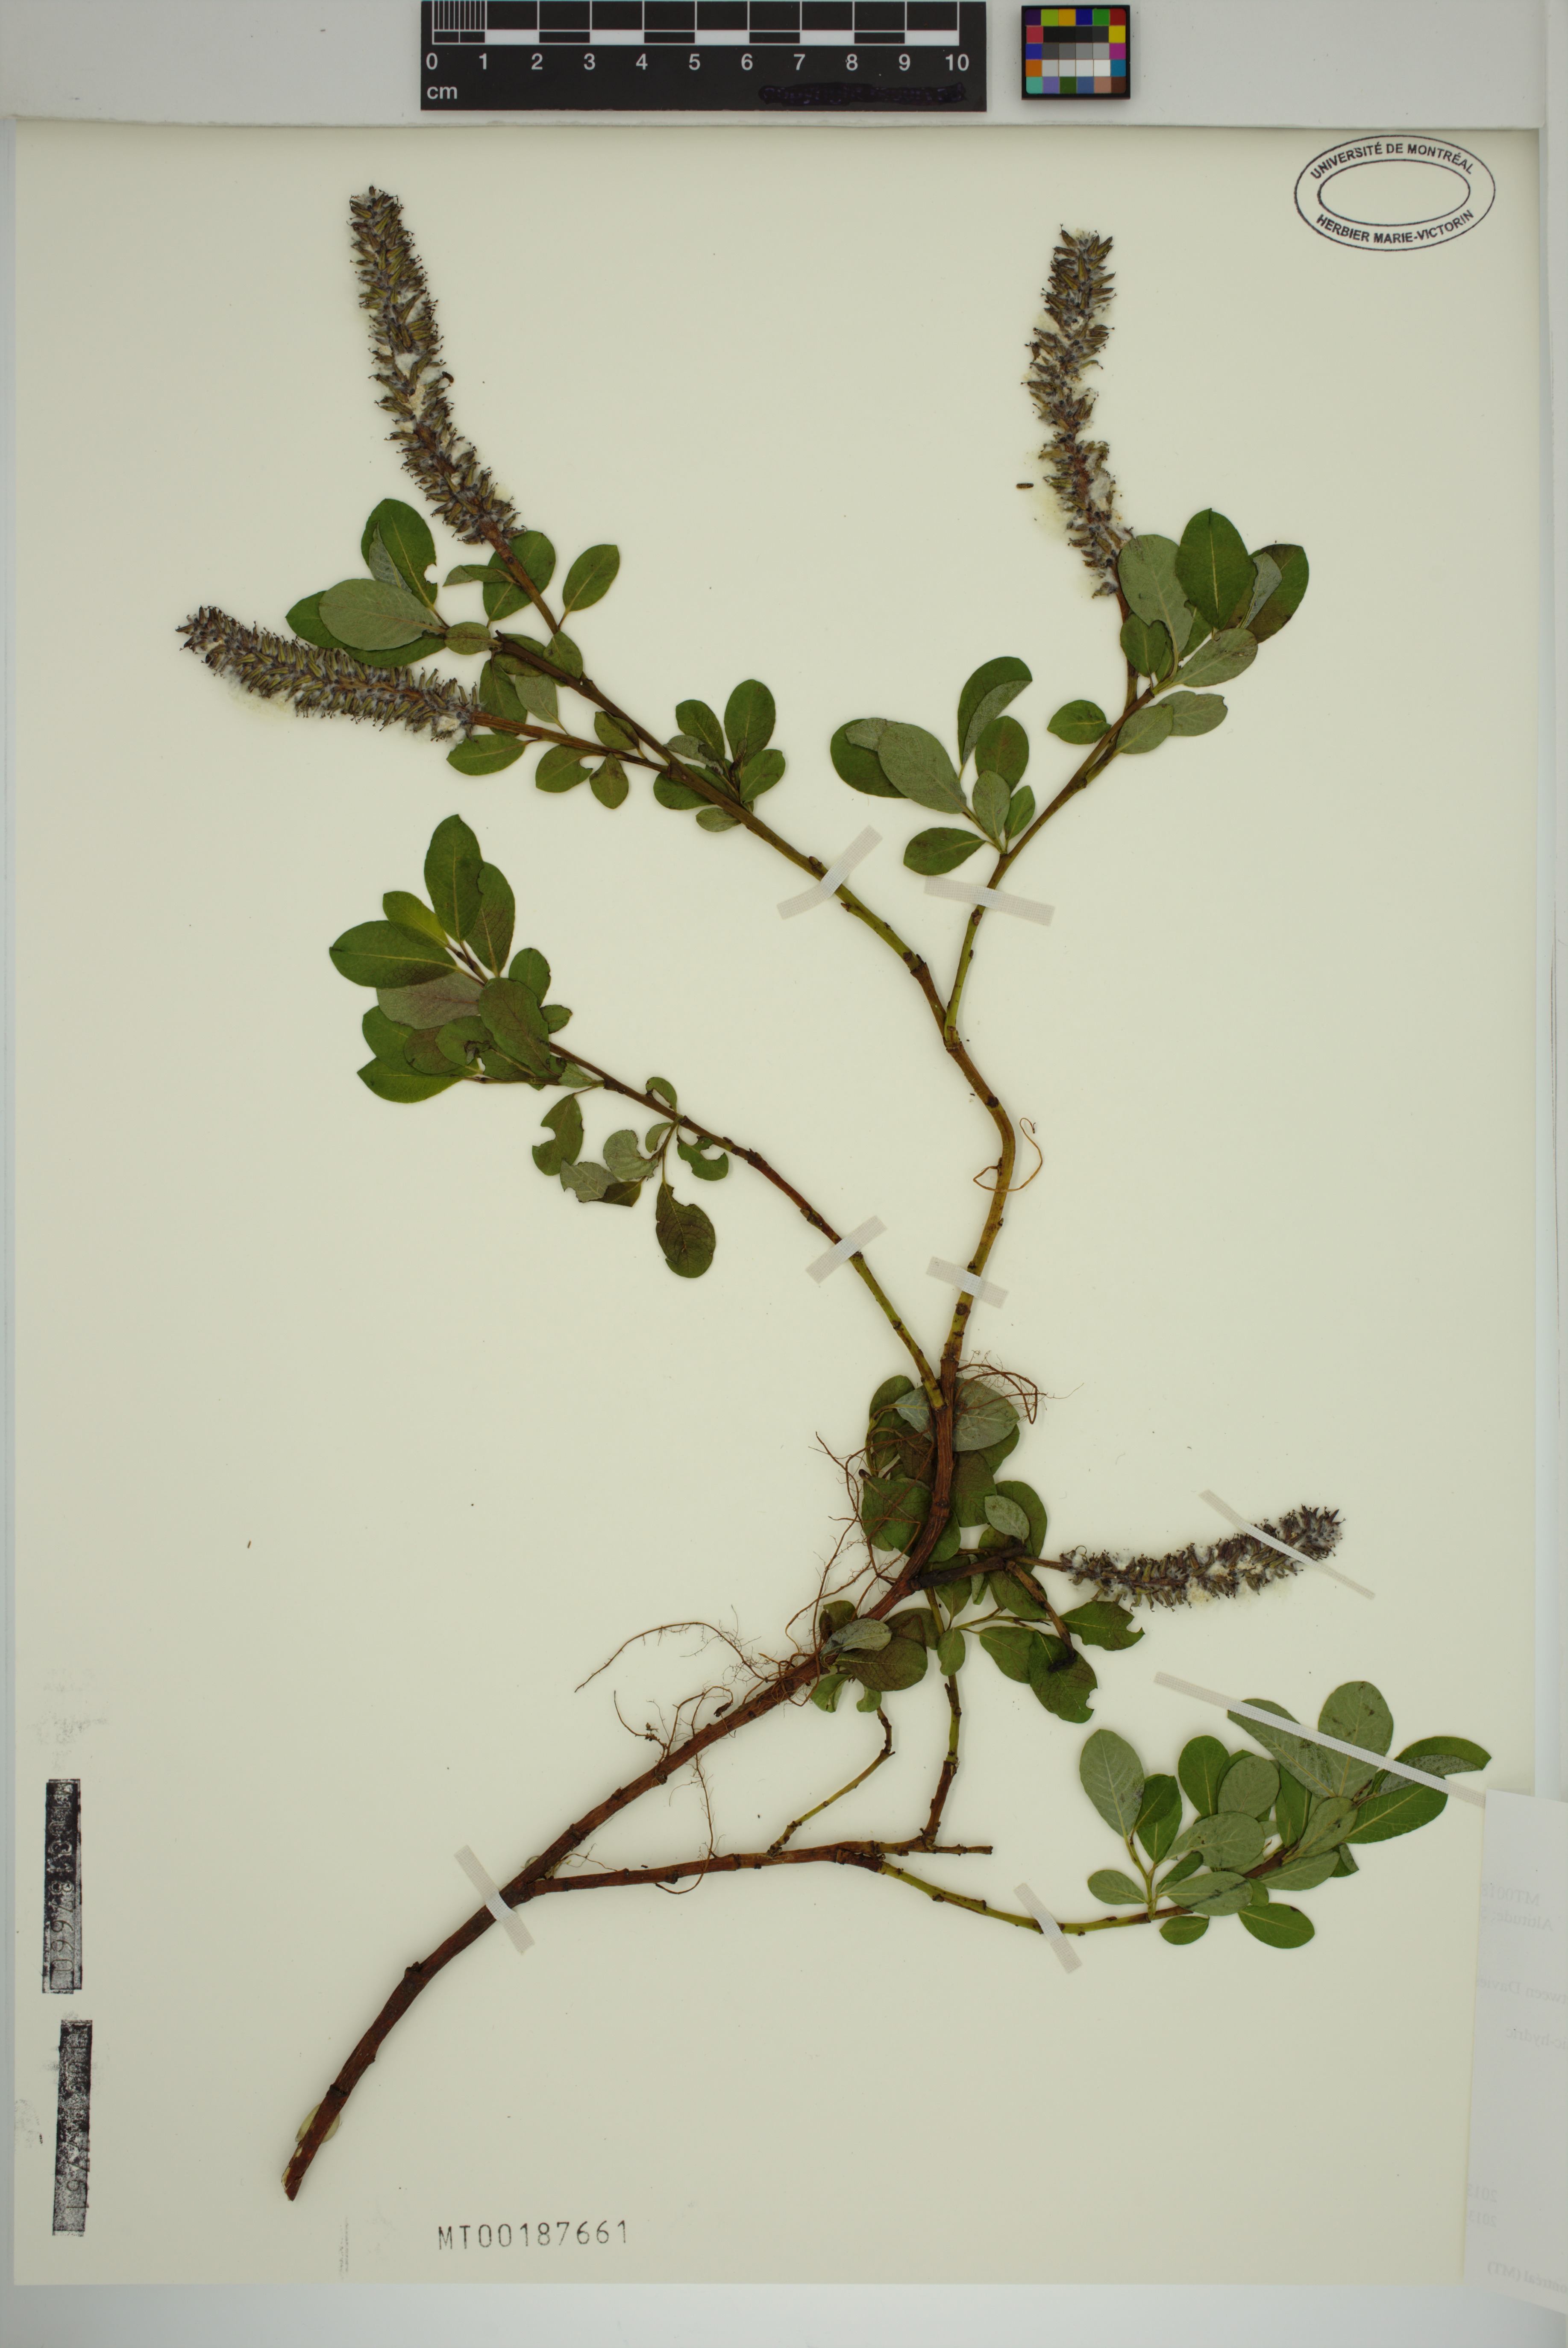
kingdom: Plantae
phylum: Tracheophyta
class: Magnoliopsida
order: Malpighiales
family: Salicaceae
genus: Salix
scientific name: Salix arctophila
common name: Greenland willow
